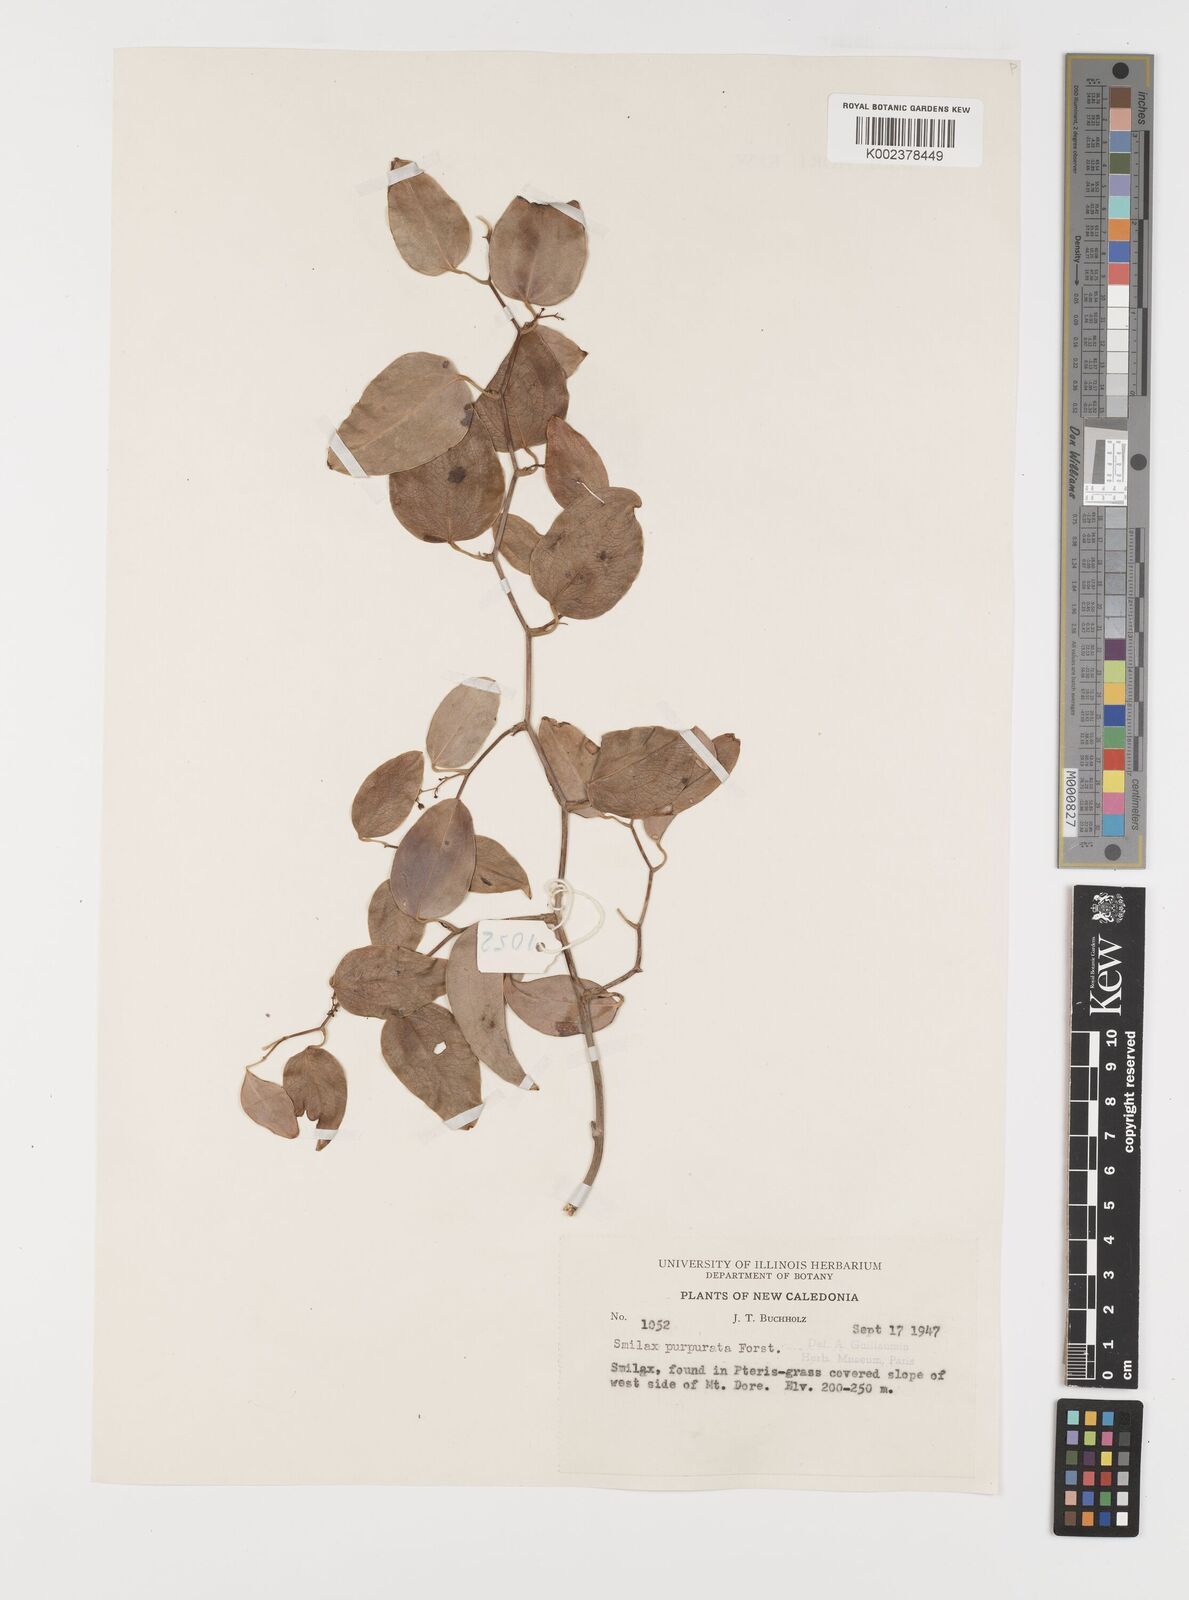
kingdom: Plantae
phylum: Tracheophyta
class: Liliopsida
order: Liliales
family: Smilacaceae
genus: Smilax
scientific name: Smilax purpurata
